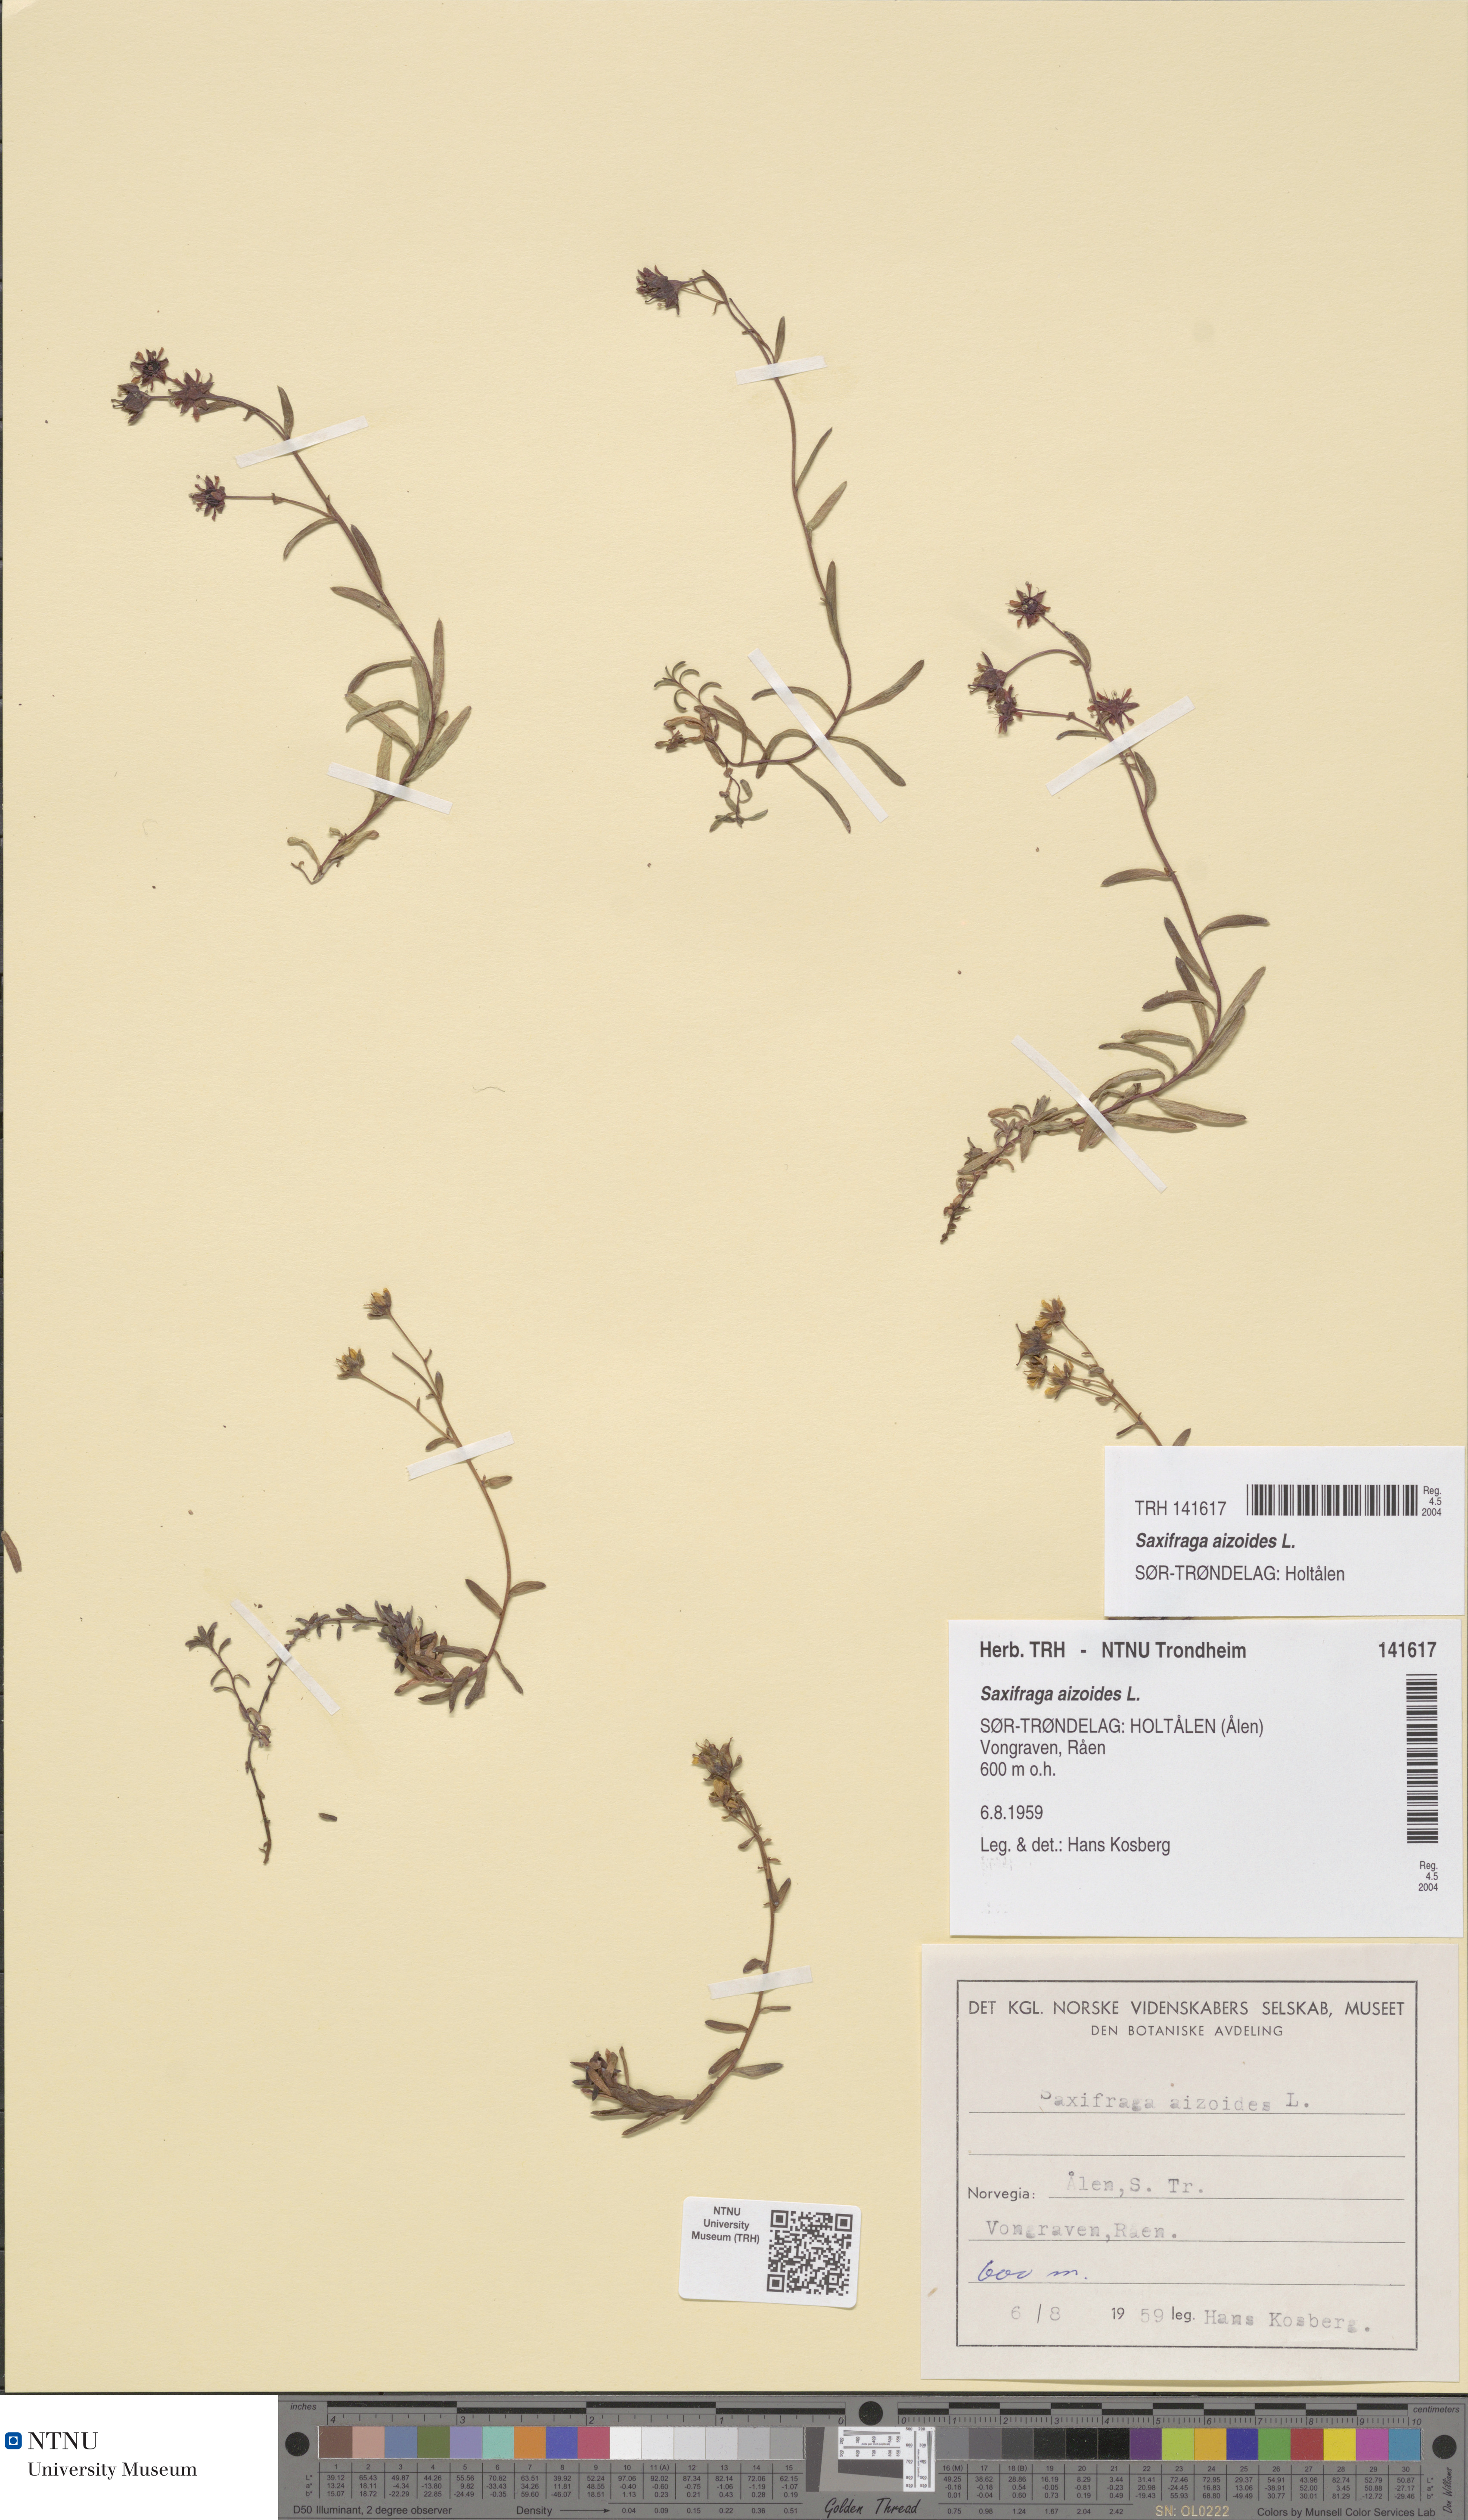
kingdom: Plantae
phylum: Tracheophyta
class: Magnoliopsida
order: Saxifragales
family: Saxifragaceae
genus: Saxifraga
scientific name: Saxifraga aizoides
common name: Yellow mountain saxifrage
